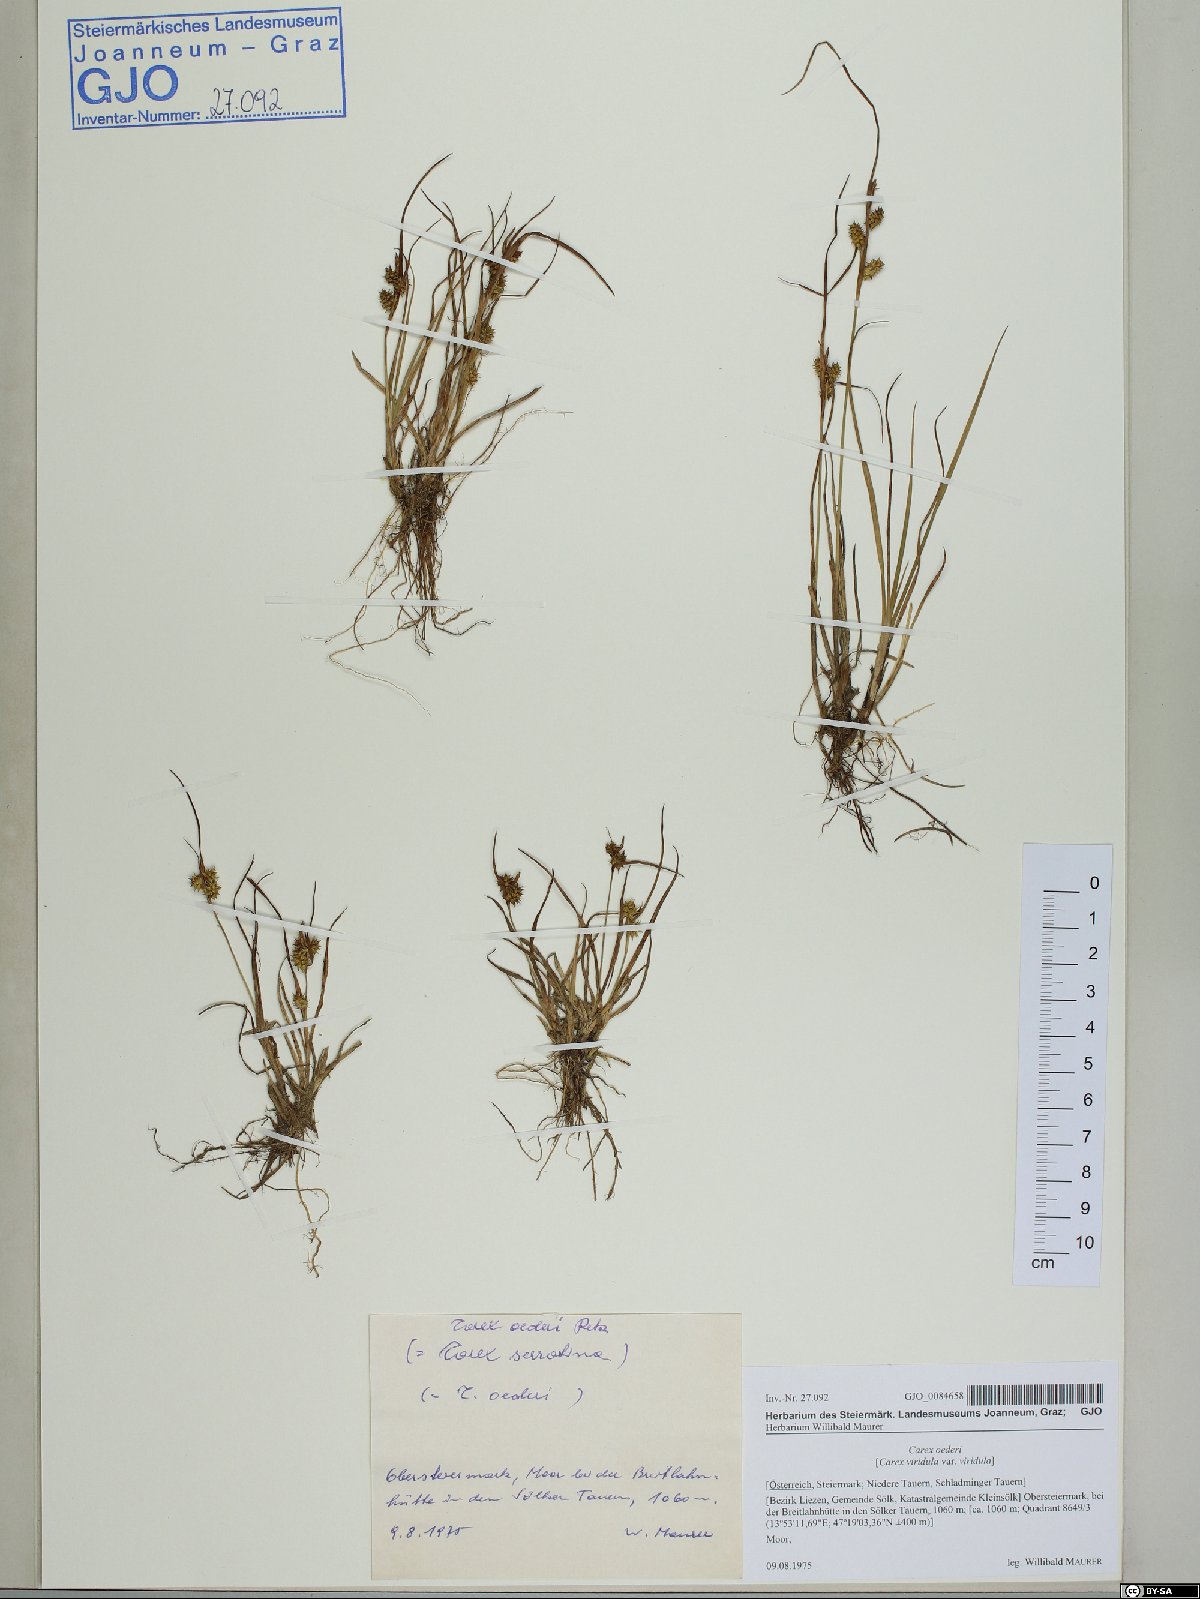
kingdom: Plantae
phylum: Tracheophyta
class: Liliopsida
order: Poales
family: Cyperaceae
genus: Carex
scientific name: Carex oederi
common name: Common & small-fruited yellow-sedge
